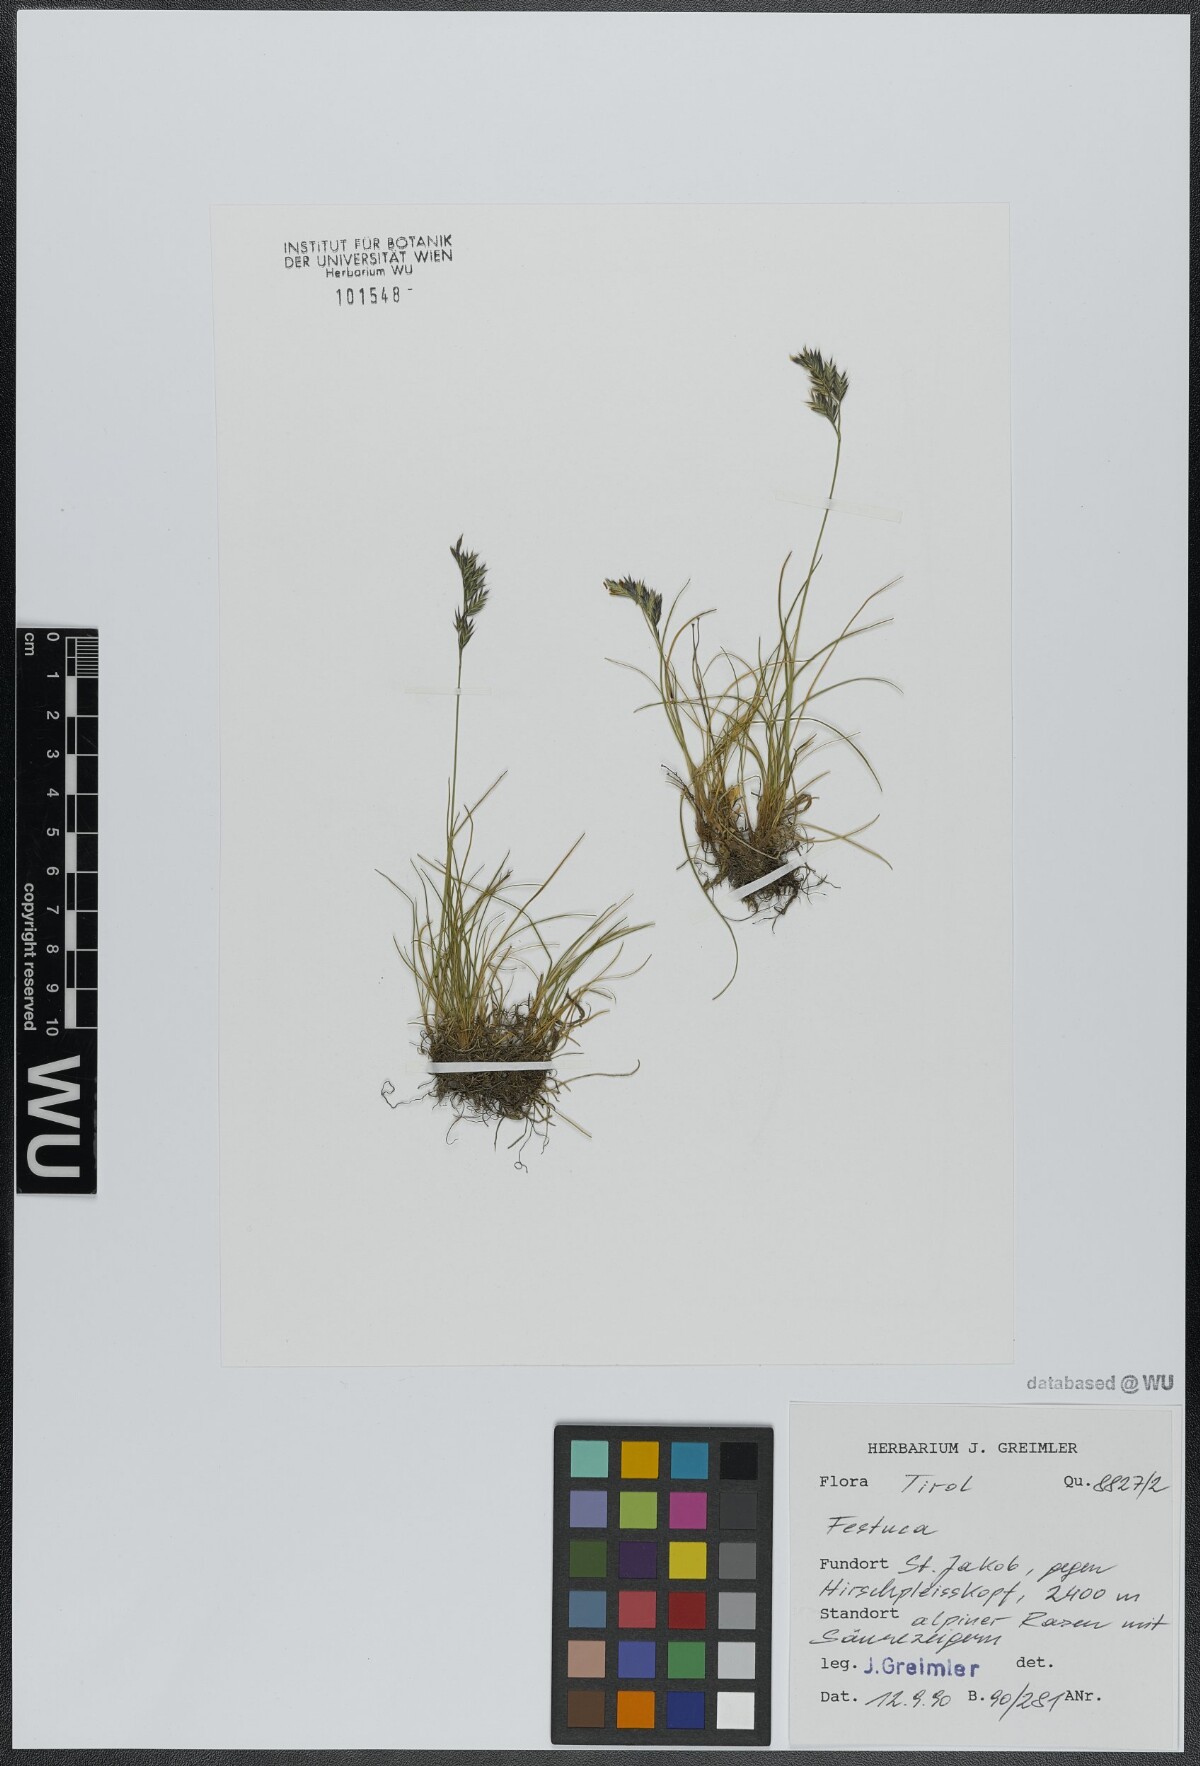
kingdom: Plantae
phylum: Tracheophyta
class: Liliopsida
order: Poales
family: Poaceae
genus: Festuca
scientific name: Festuca
